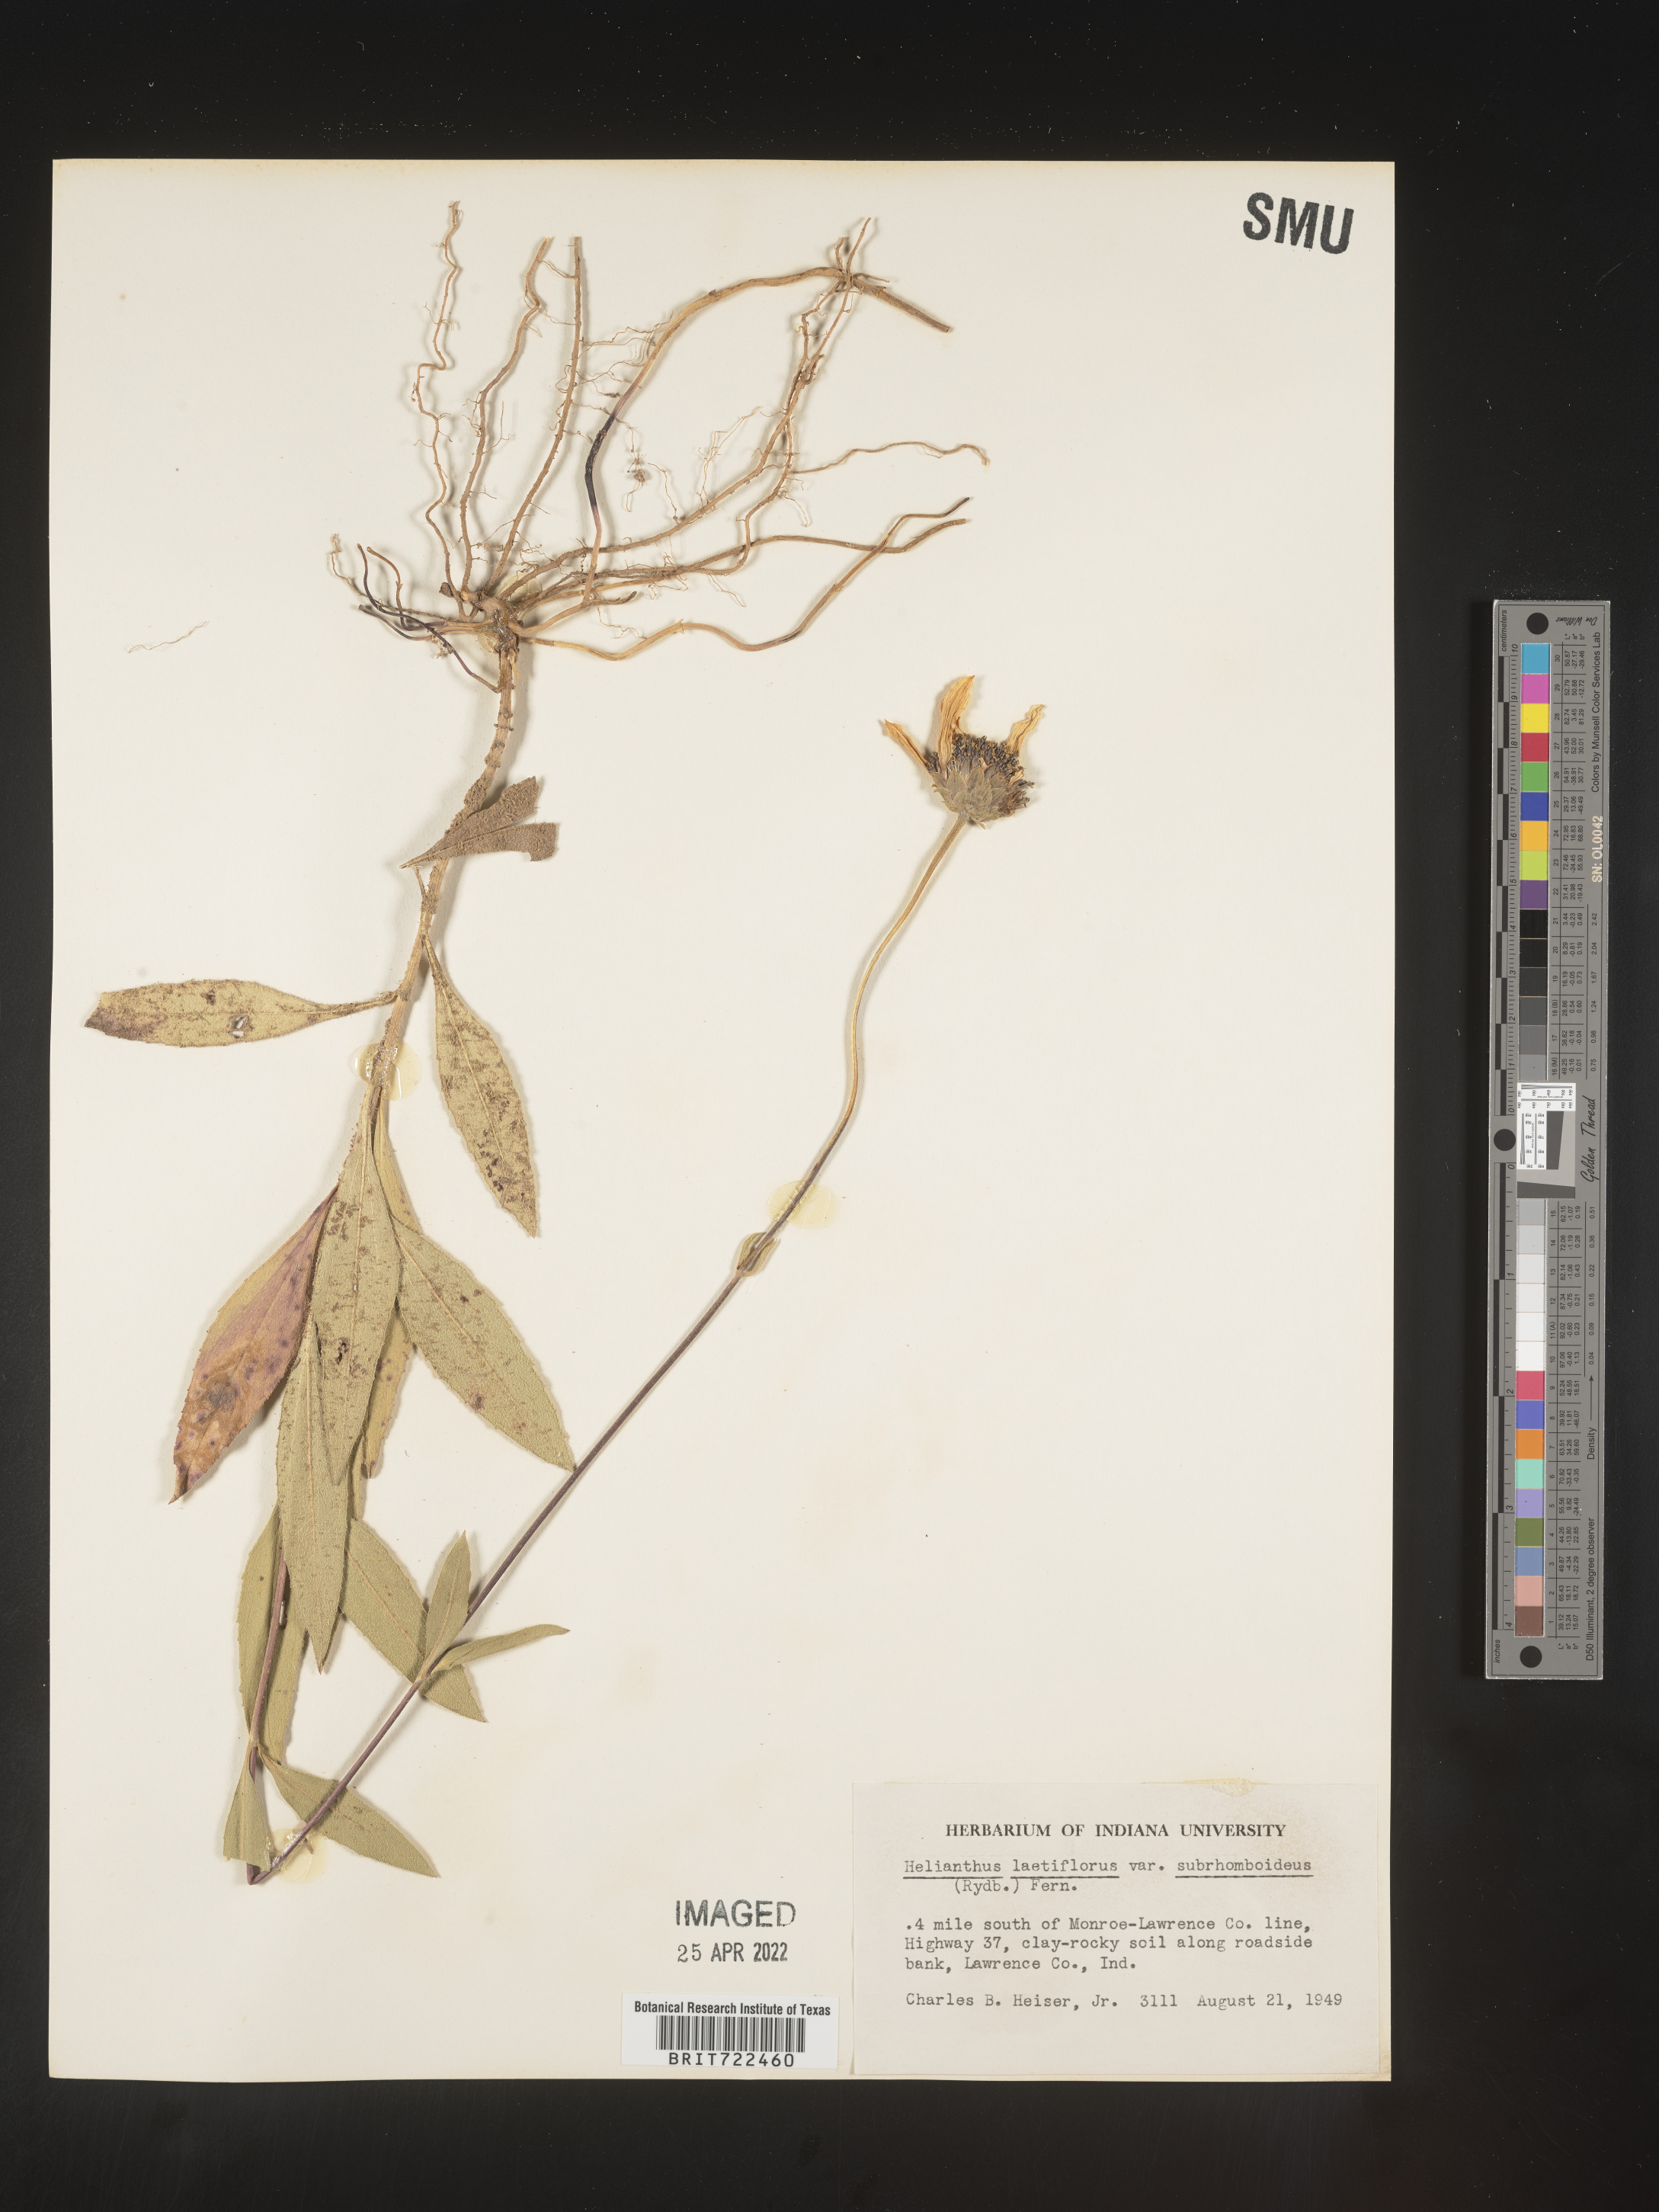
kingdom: Plantae
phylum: Tracheophyta
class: Magnoliopsida
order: Asterales
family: Asteraceae
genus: Helianthus
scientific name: Helianthus laetiflorus
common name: Perennial sunflower
